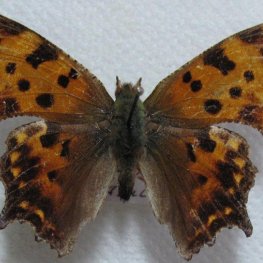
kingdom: Animalia
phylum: Arthropoda
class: Insecta
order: Lepidoptera
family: Nymphalidae
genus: Polygonia
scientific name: Polygonia comma
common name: Eastern Comma
